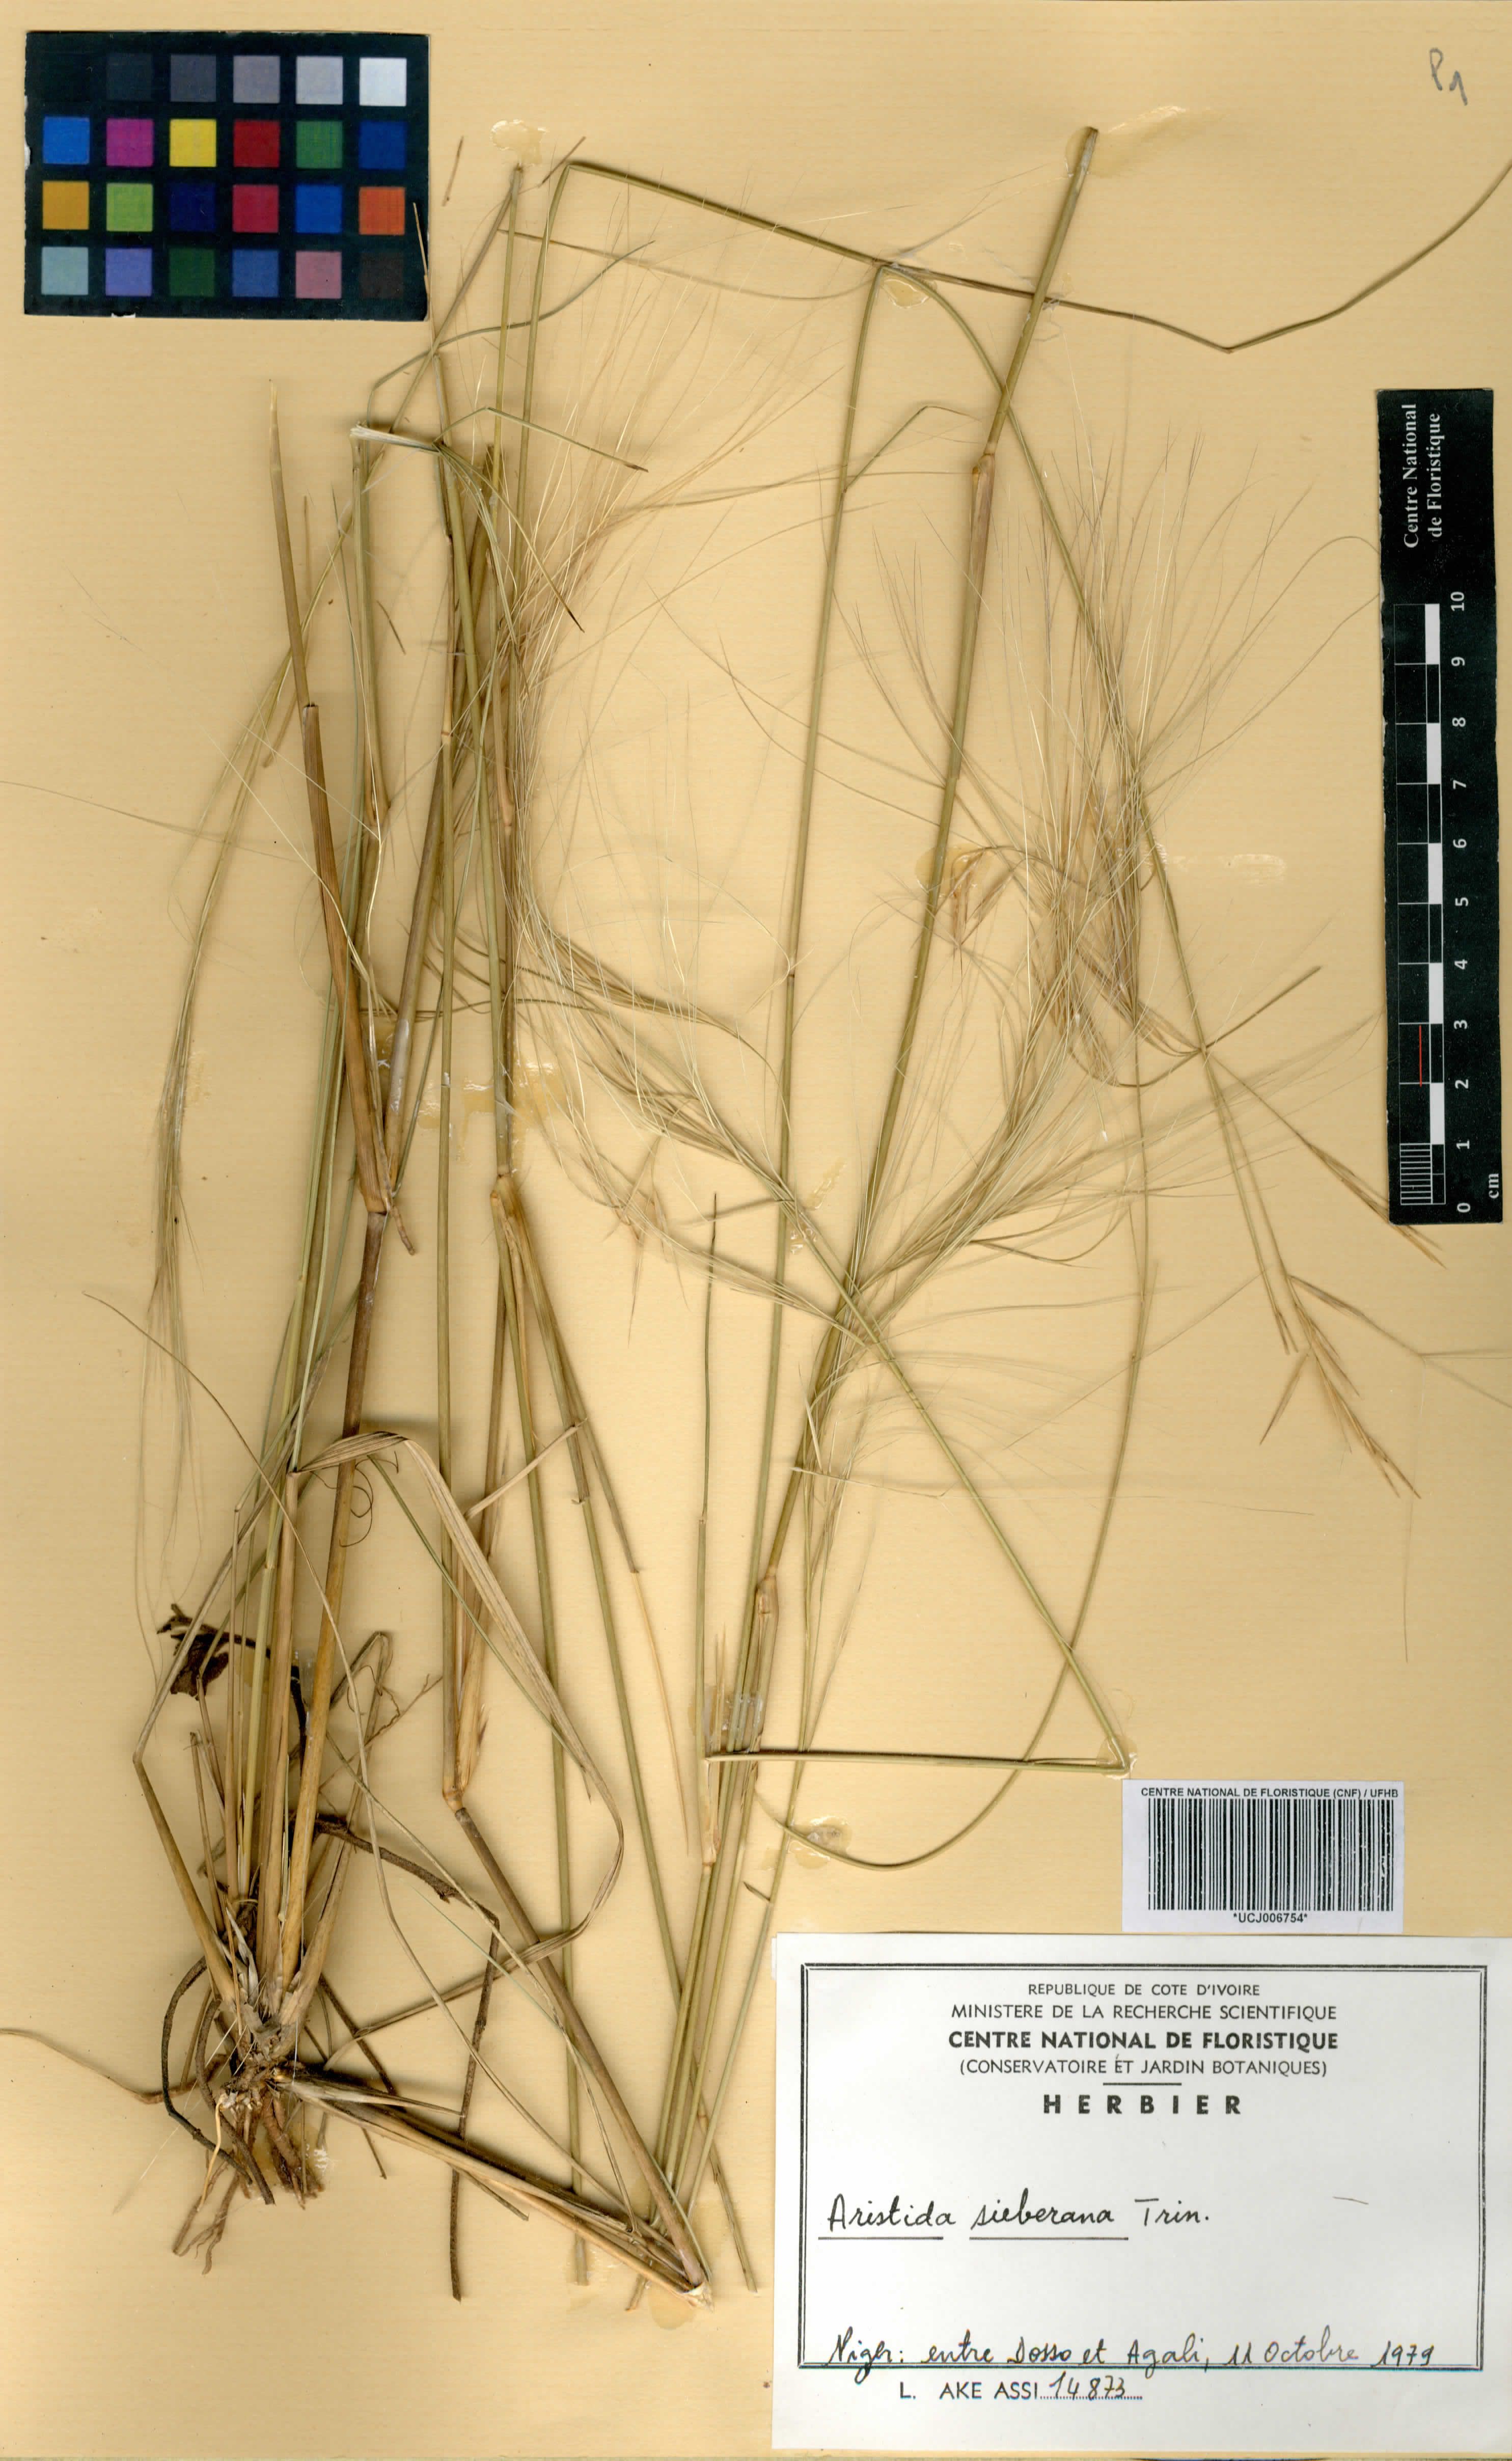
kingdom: Plantae
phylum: Tracheophyta
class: Liliopsida
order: Poales
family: Poaceae
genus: Aristida
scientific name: Aristida sieberiana
